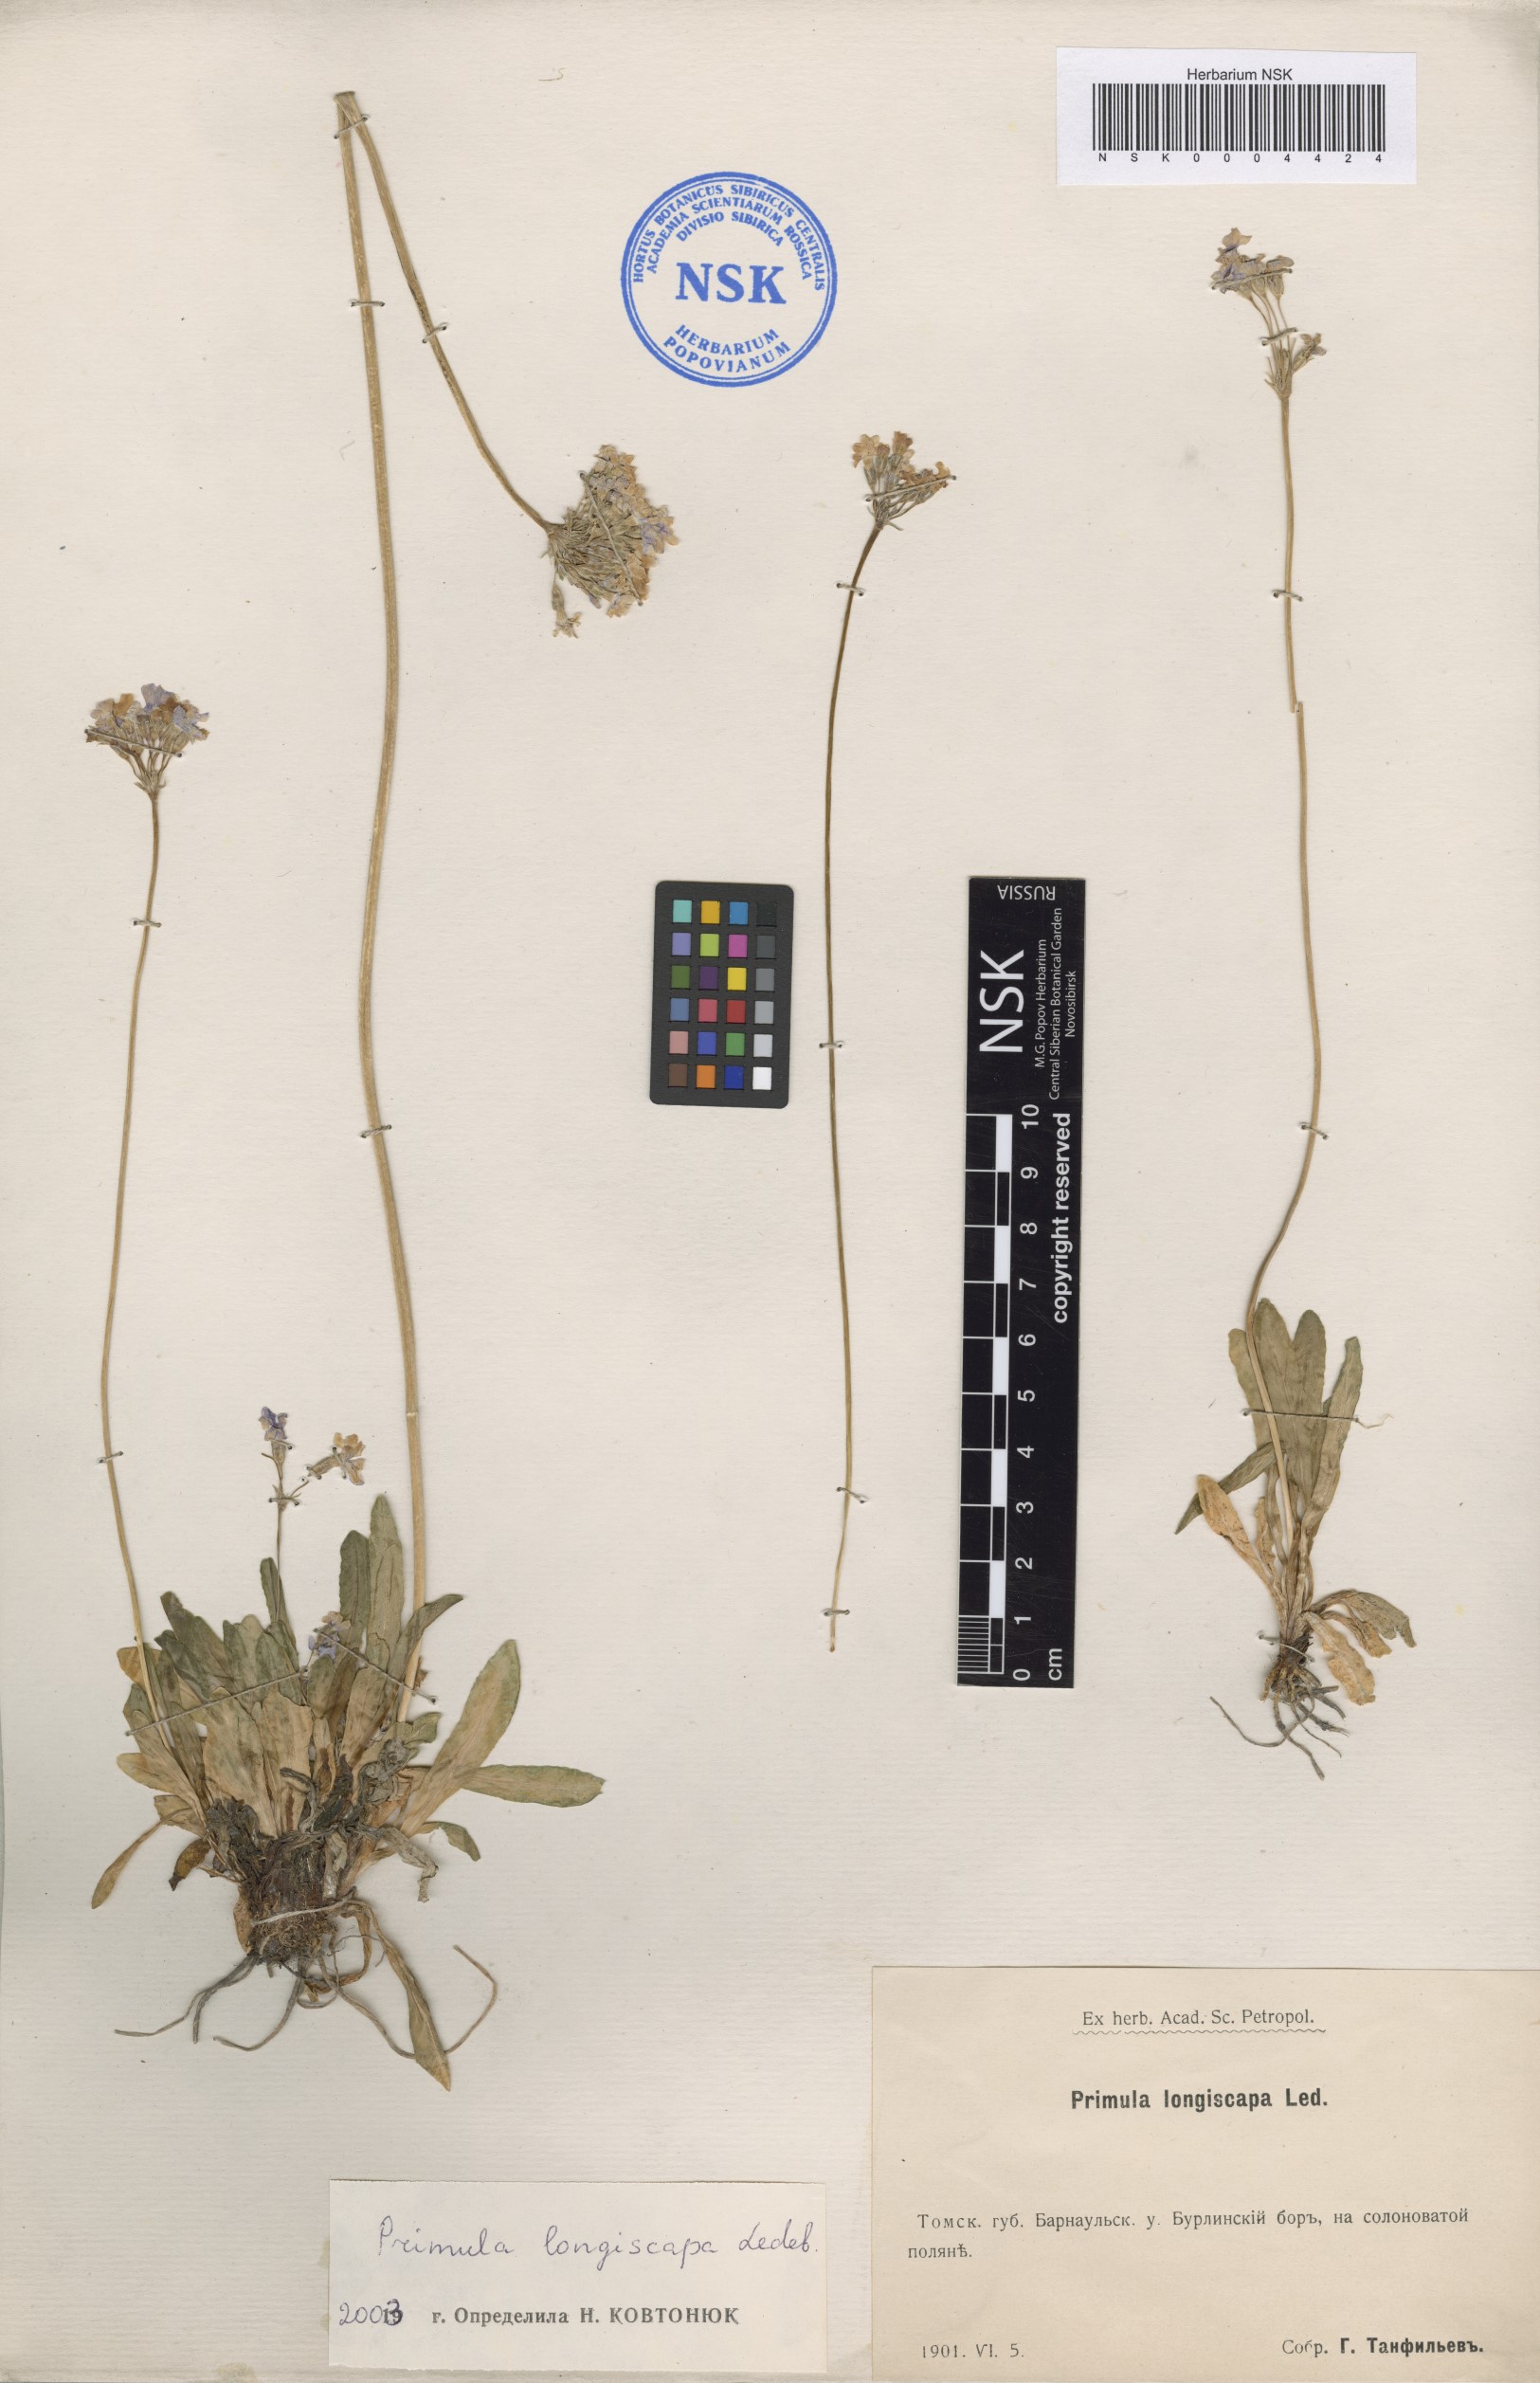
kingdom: Plantae
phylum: Tracheophyta
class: Magnoliopsida
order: Ericales
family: Primulaceae
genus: Primula
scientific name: Primula longiscapa
